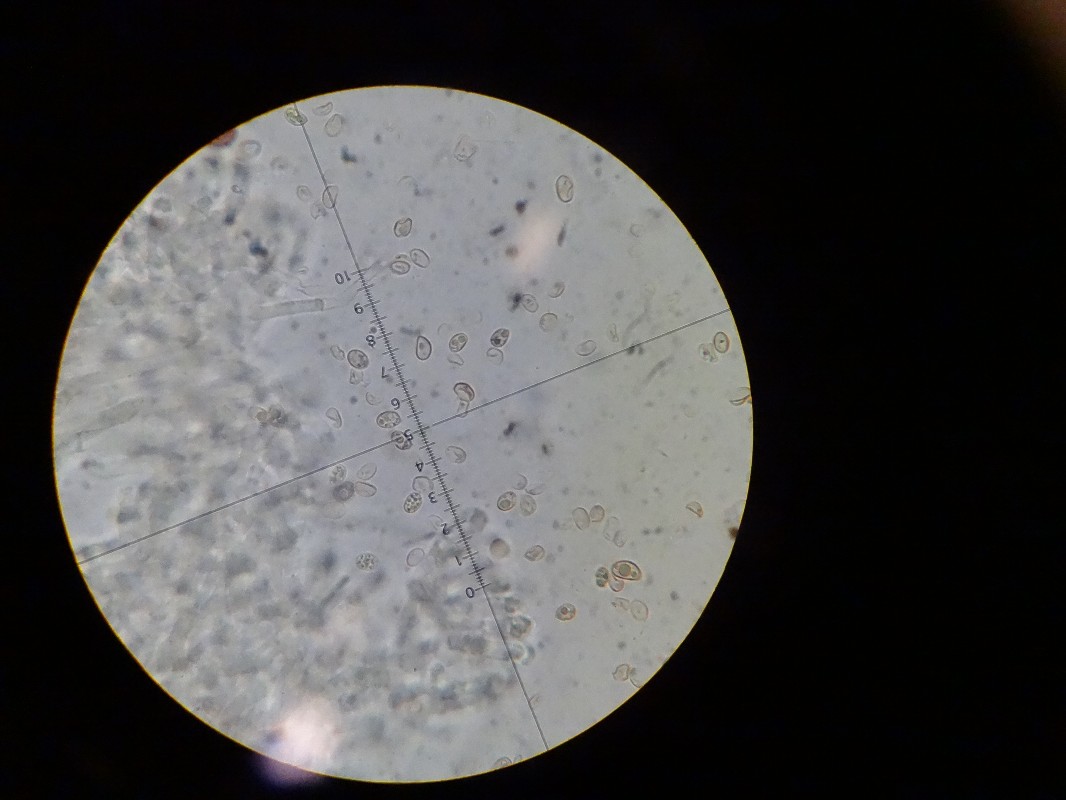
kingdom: Fungi
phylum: Basidiomycota
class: Agaricomycetes
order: Agaricales
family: Tubariaceae
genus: Tubaria
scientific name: Tubaria furfuracea
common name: kliddet fnughat
